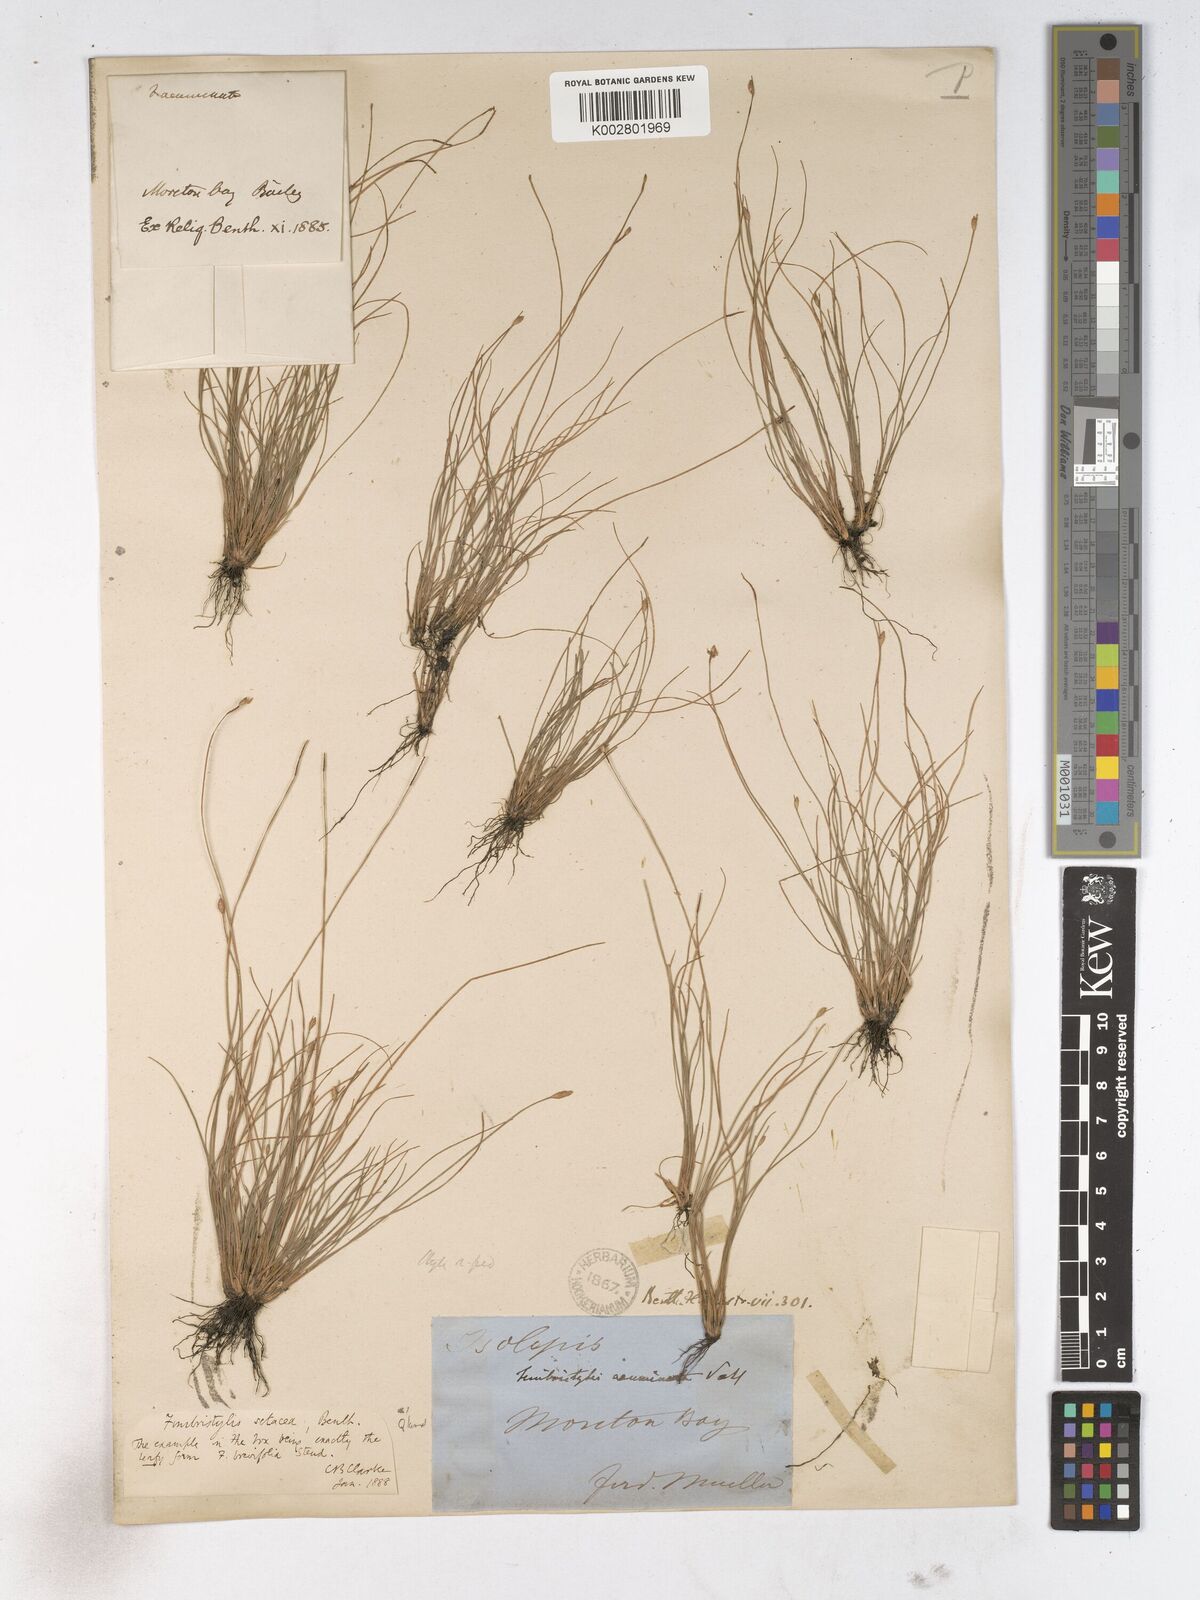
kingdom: Plantae
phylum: Tracheophyta
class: Liliopsida
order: Poales
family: Cyperaceae
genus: Fimbristylis
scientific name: Fimbristylis acicularis
